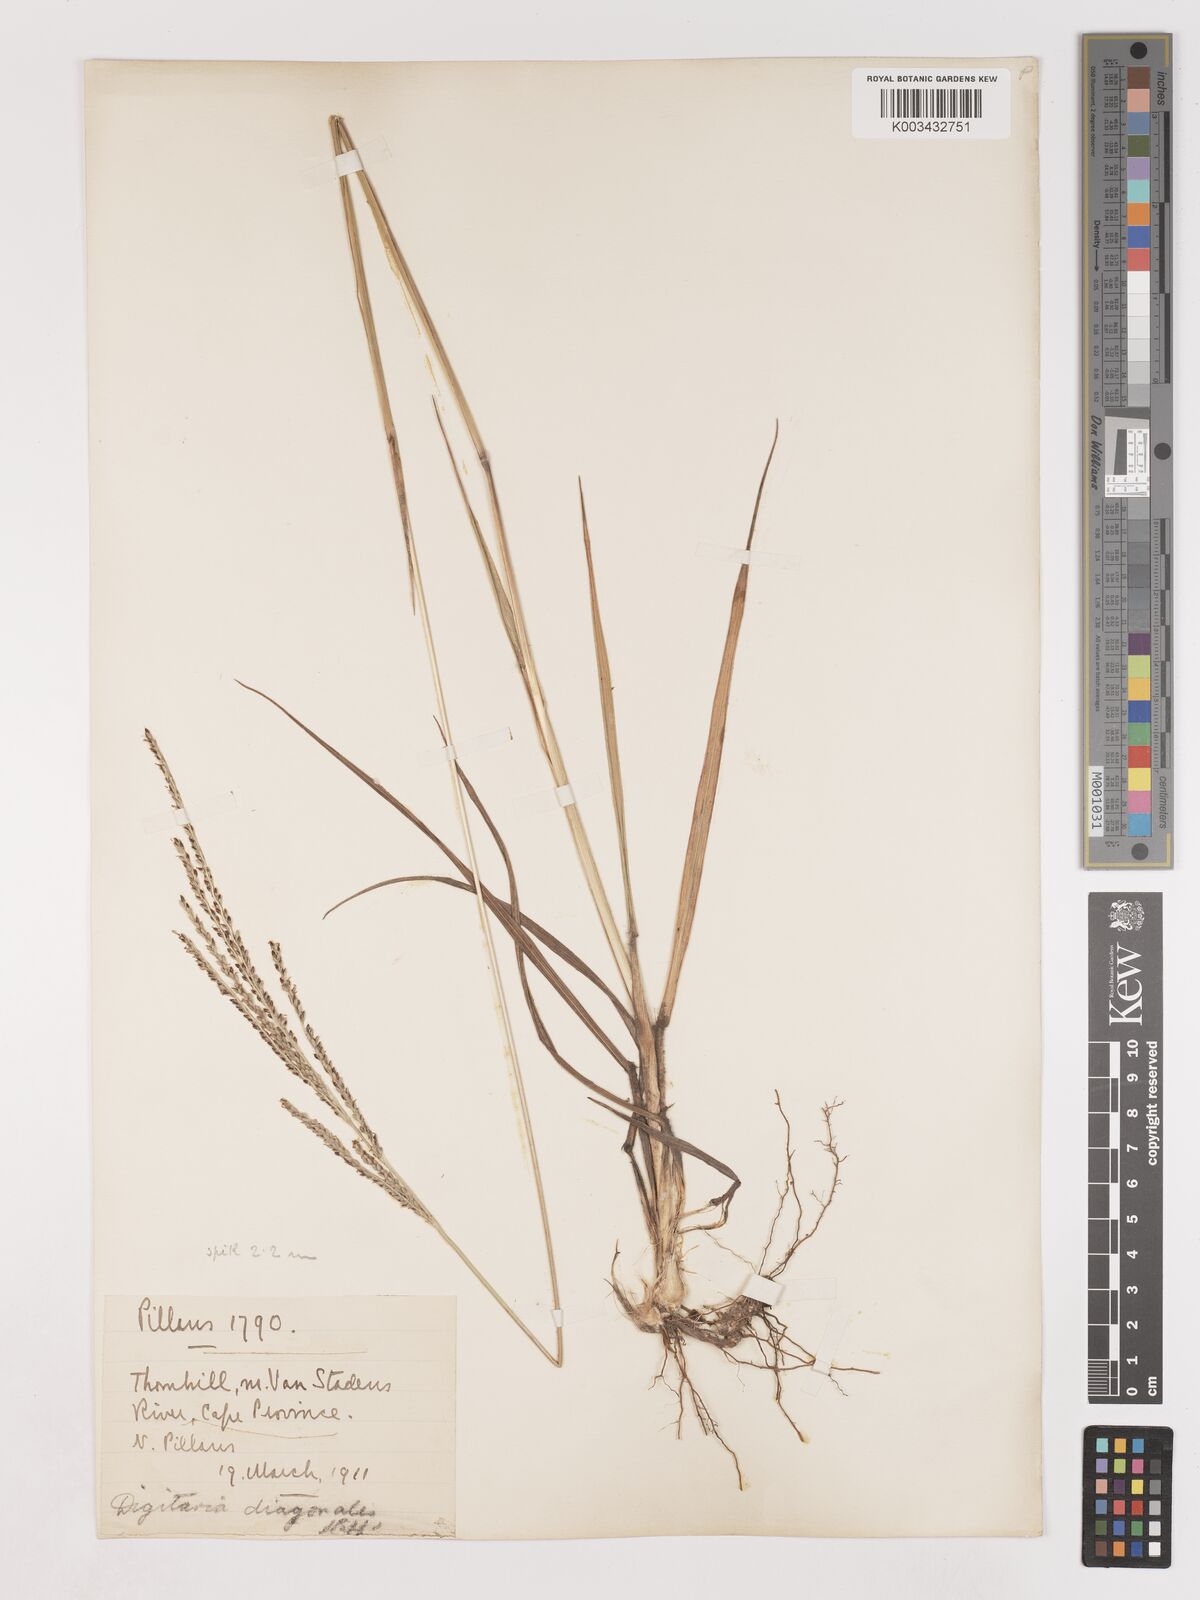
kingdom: Plantae
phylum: Tracheophyta
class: Liliopsida
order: Poales
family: Poaceae
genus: Digitaria
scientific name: Digitaria diagonalis
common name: Brown-seed finger grass
